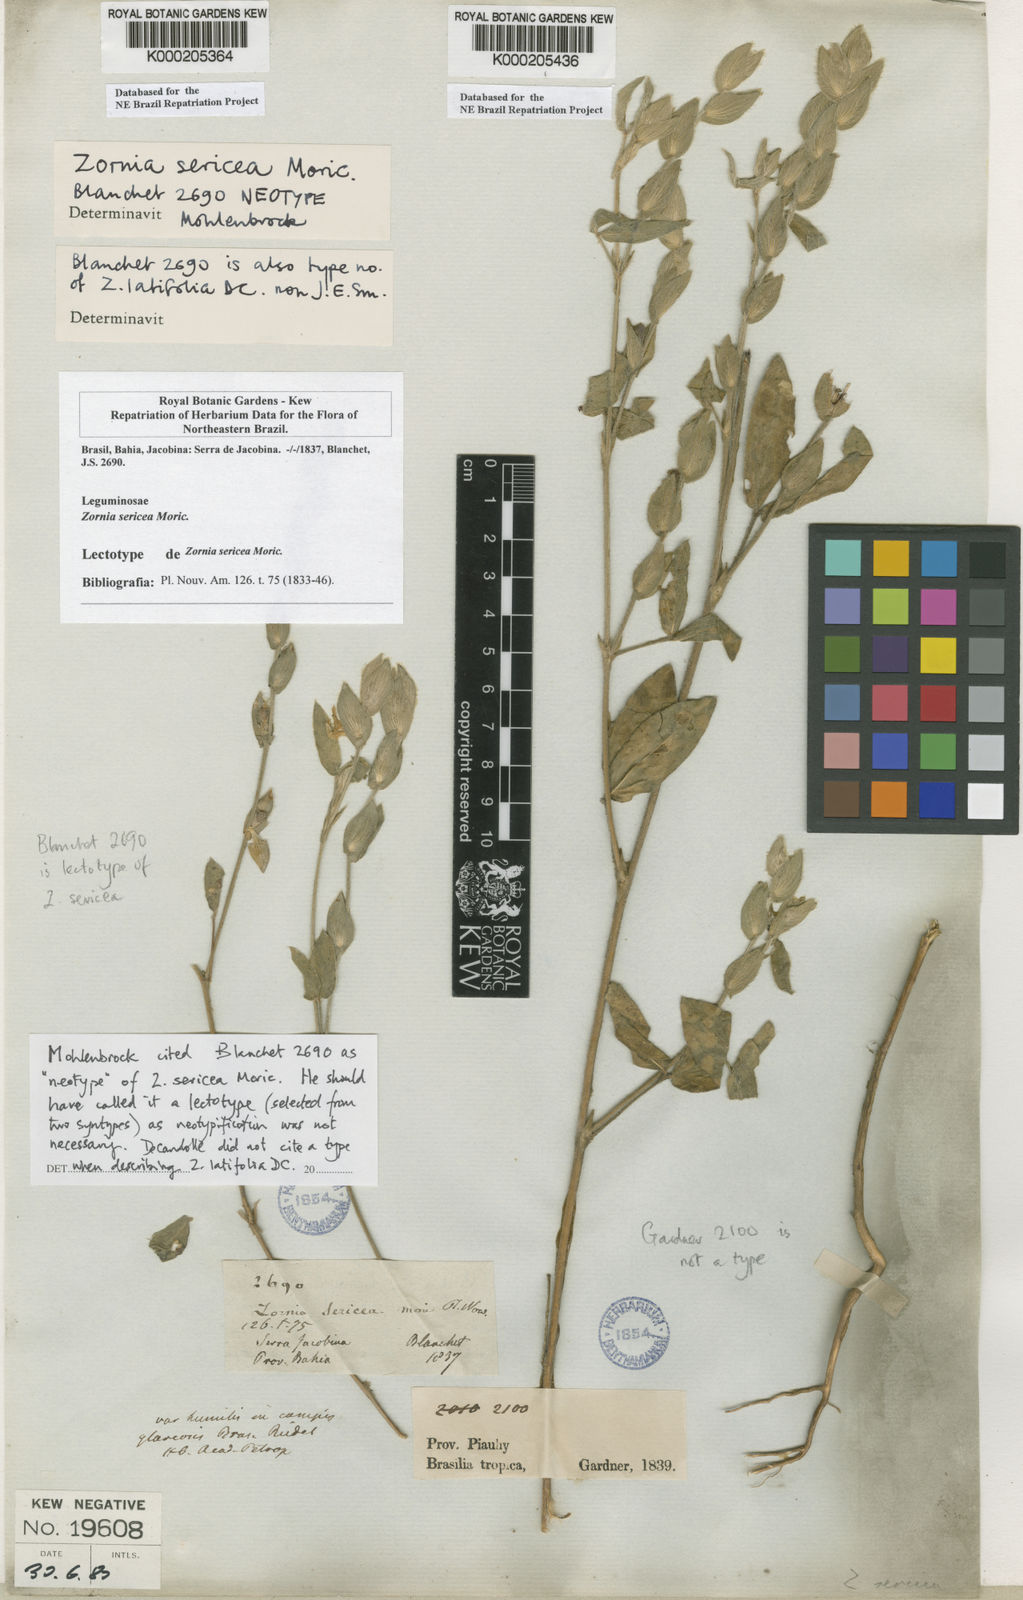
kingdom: Plantae
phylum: Tracheophyta
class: Magnoliopsida
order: Fabales
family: Fabaceae
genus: Zornia
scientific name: Zornia sericea
